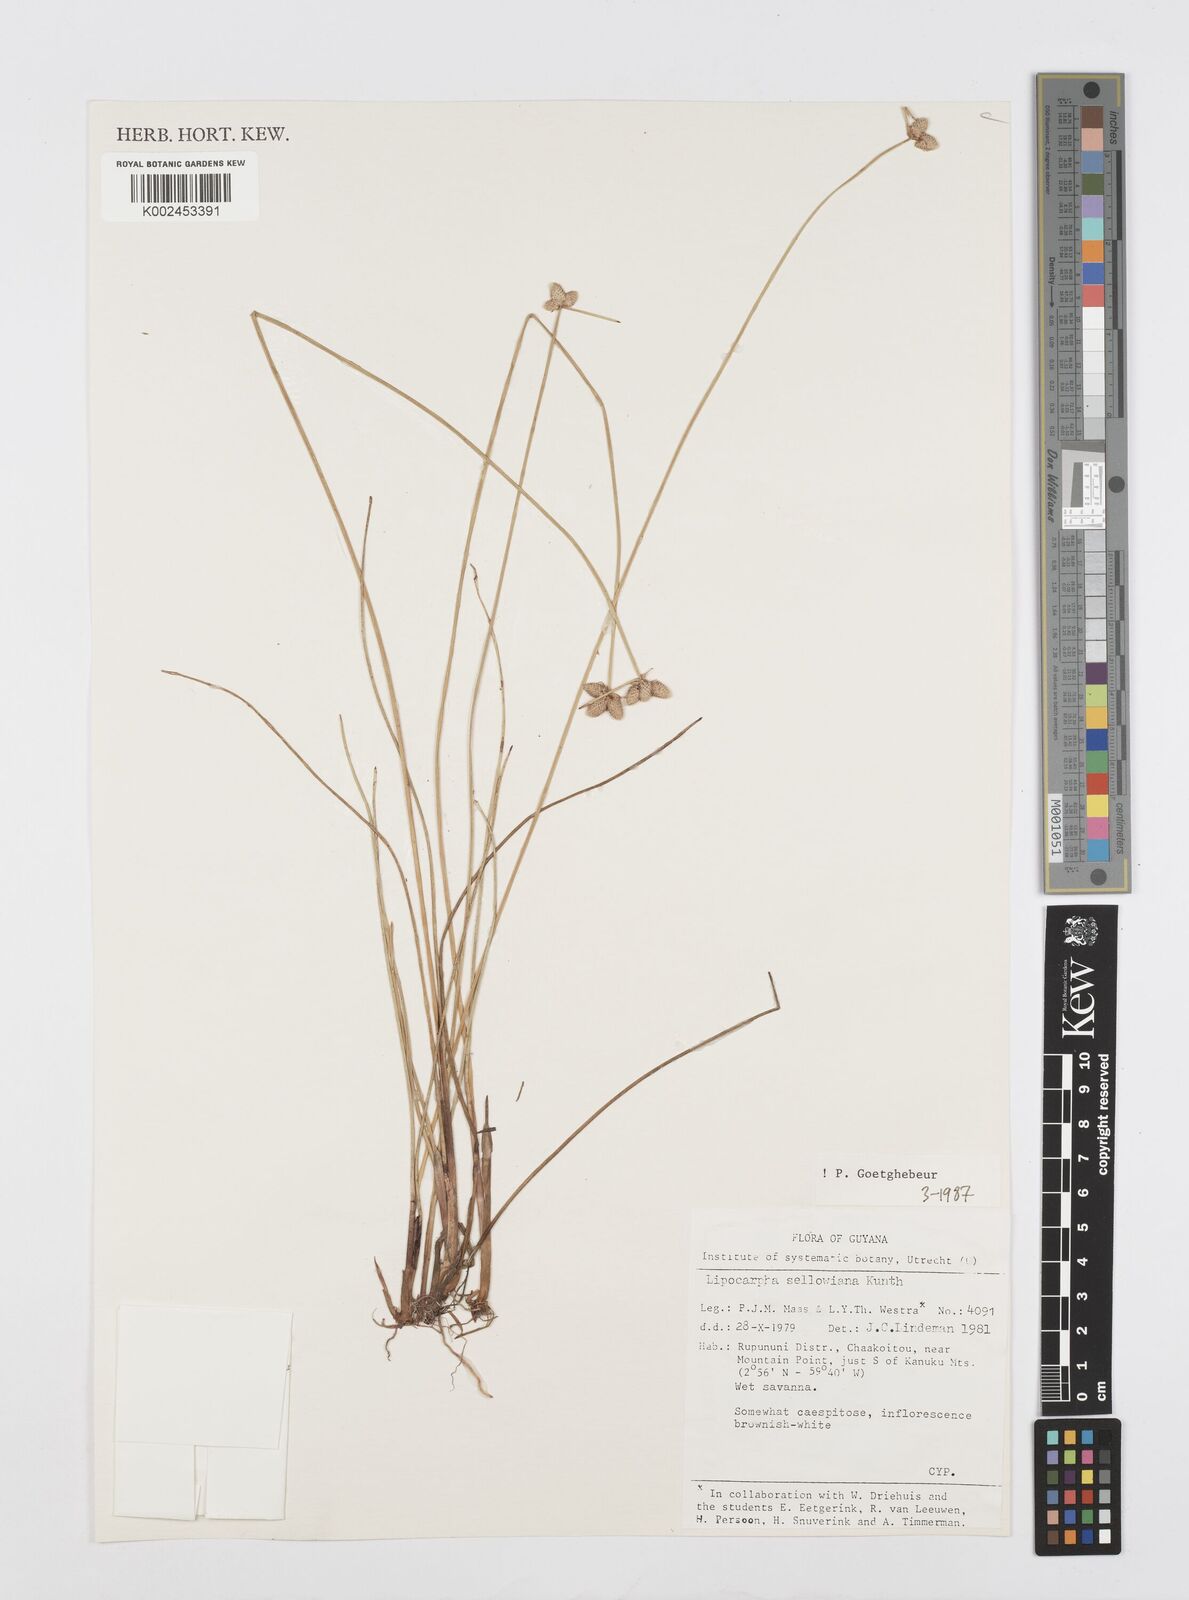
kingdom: Plantae
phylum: Tracheophyta
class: Liliopsida
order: Poales
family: Cyperaceae
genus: Cyperus
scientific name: Cyperus lanceolatus
